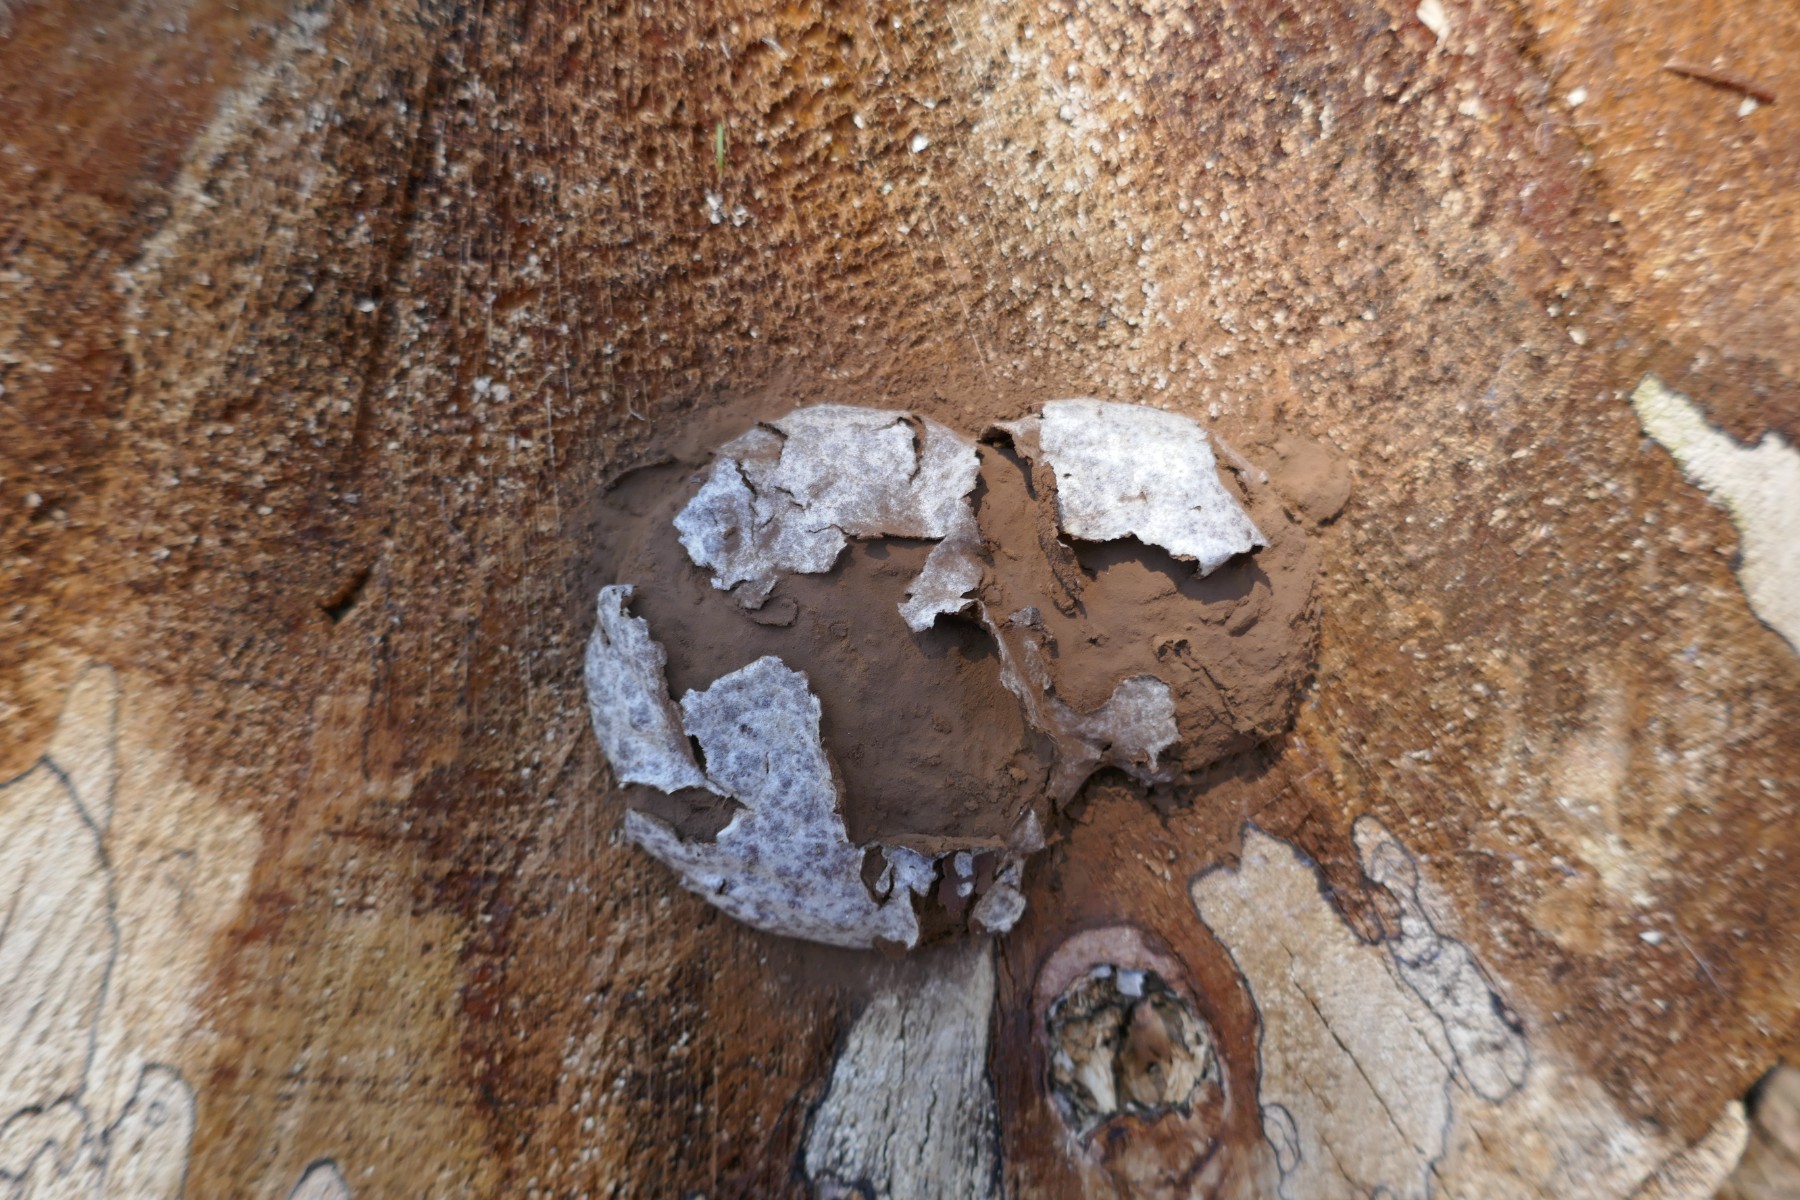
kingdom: Protozoa
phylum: Mycetozoa
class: Myxomycetes
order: Cribrariales
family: Tubiferaceae
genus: Reticularia
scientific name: Reticularia lycoperdon
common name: skinnende støvpude
